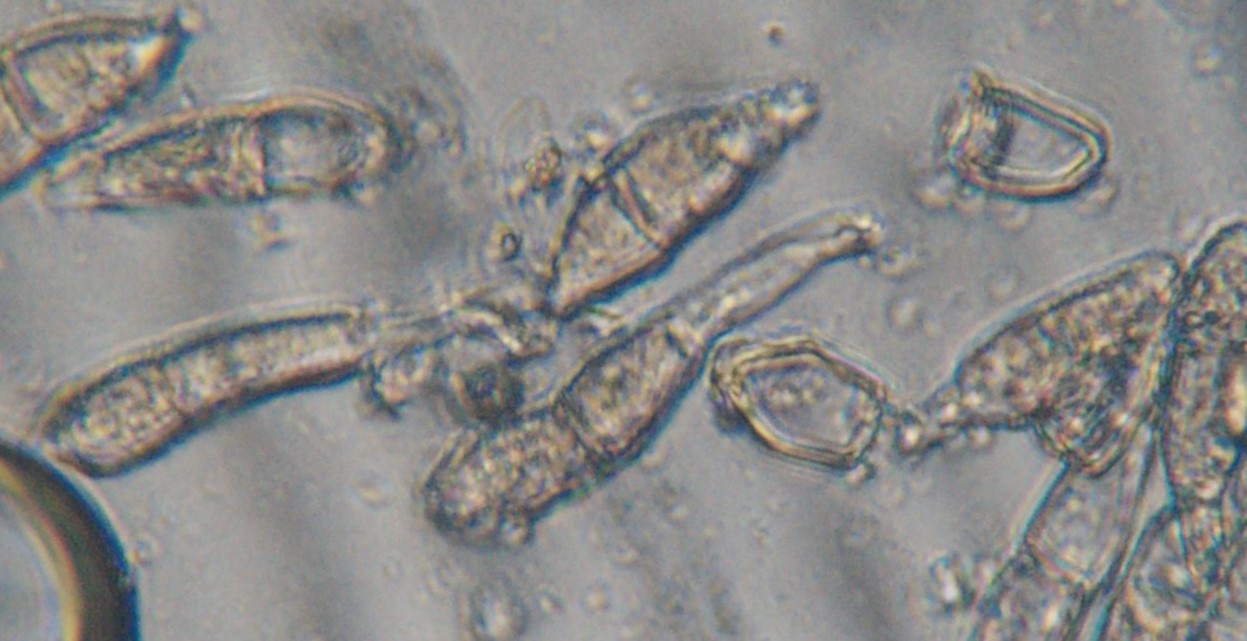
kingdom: Fungi
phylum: Basidiomycota
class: Pucciniomycetes
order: Pucciniales
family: Pucciniaceae
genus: Puccinia
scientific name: Puccinia veronicae
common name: Wood speedwell rust
